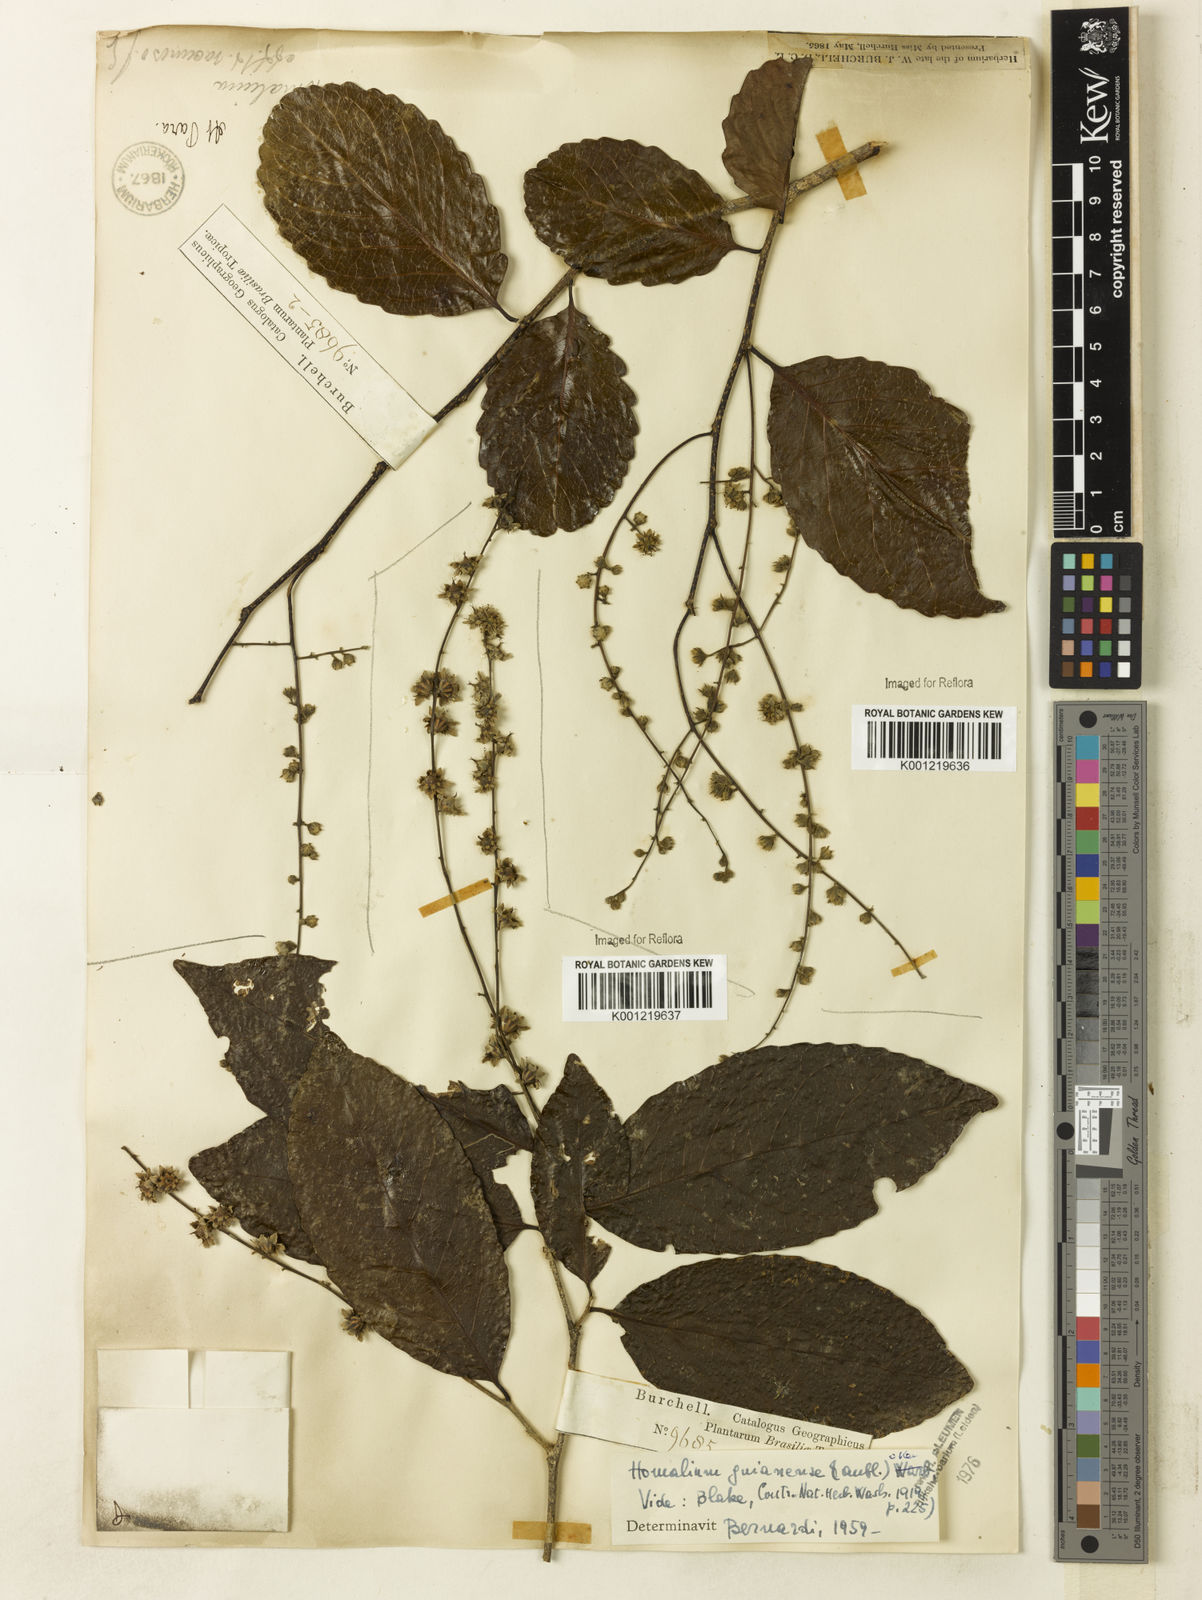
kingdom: Plantae
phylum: Tracheophyta
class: Magnoliopsida
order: Malpighiales
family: Salicaceae
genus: Homalium
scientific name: Homalium guianense
